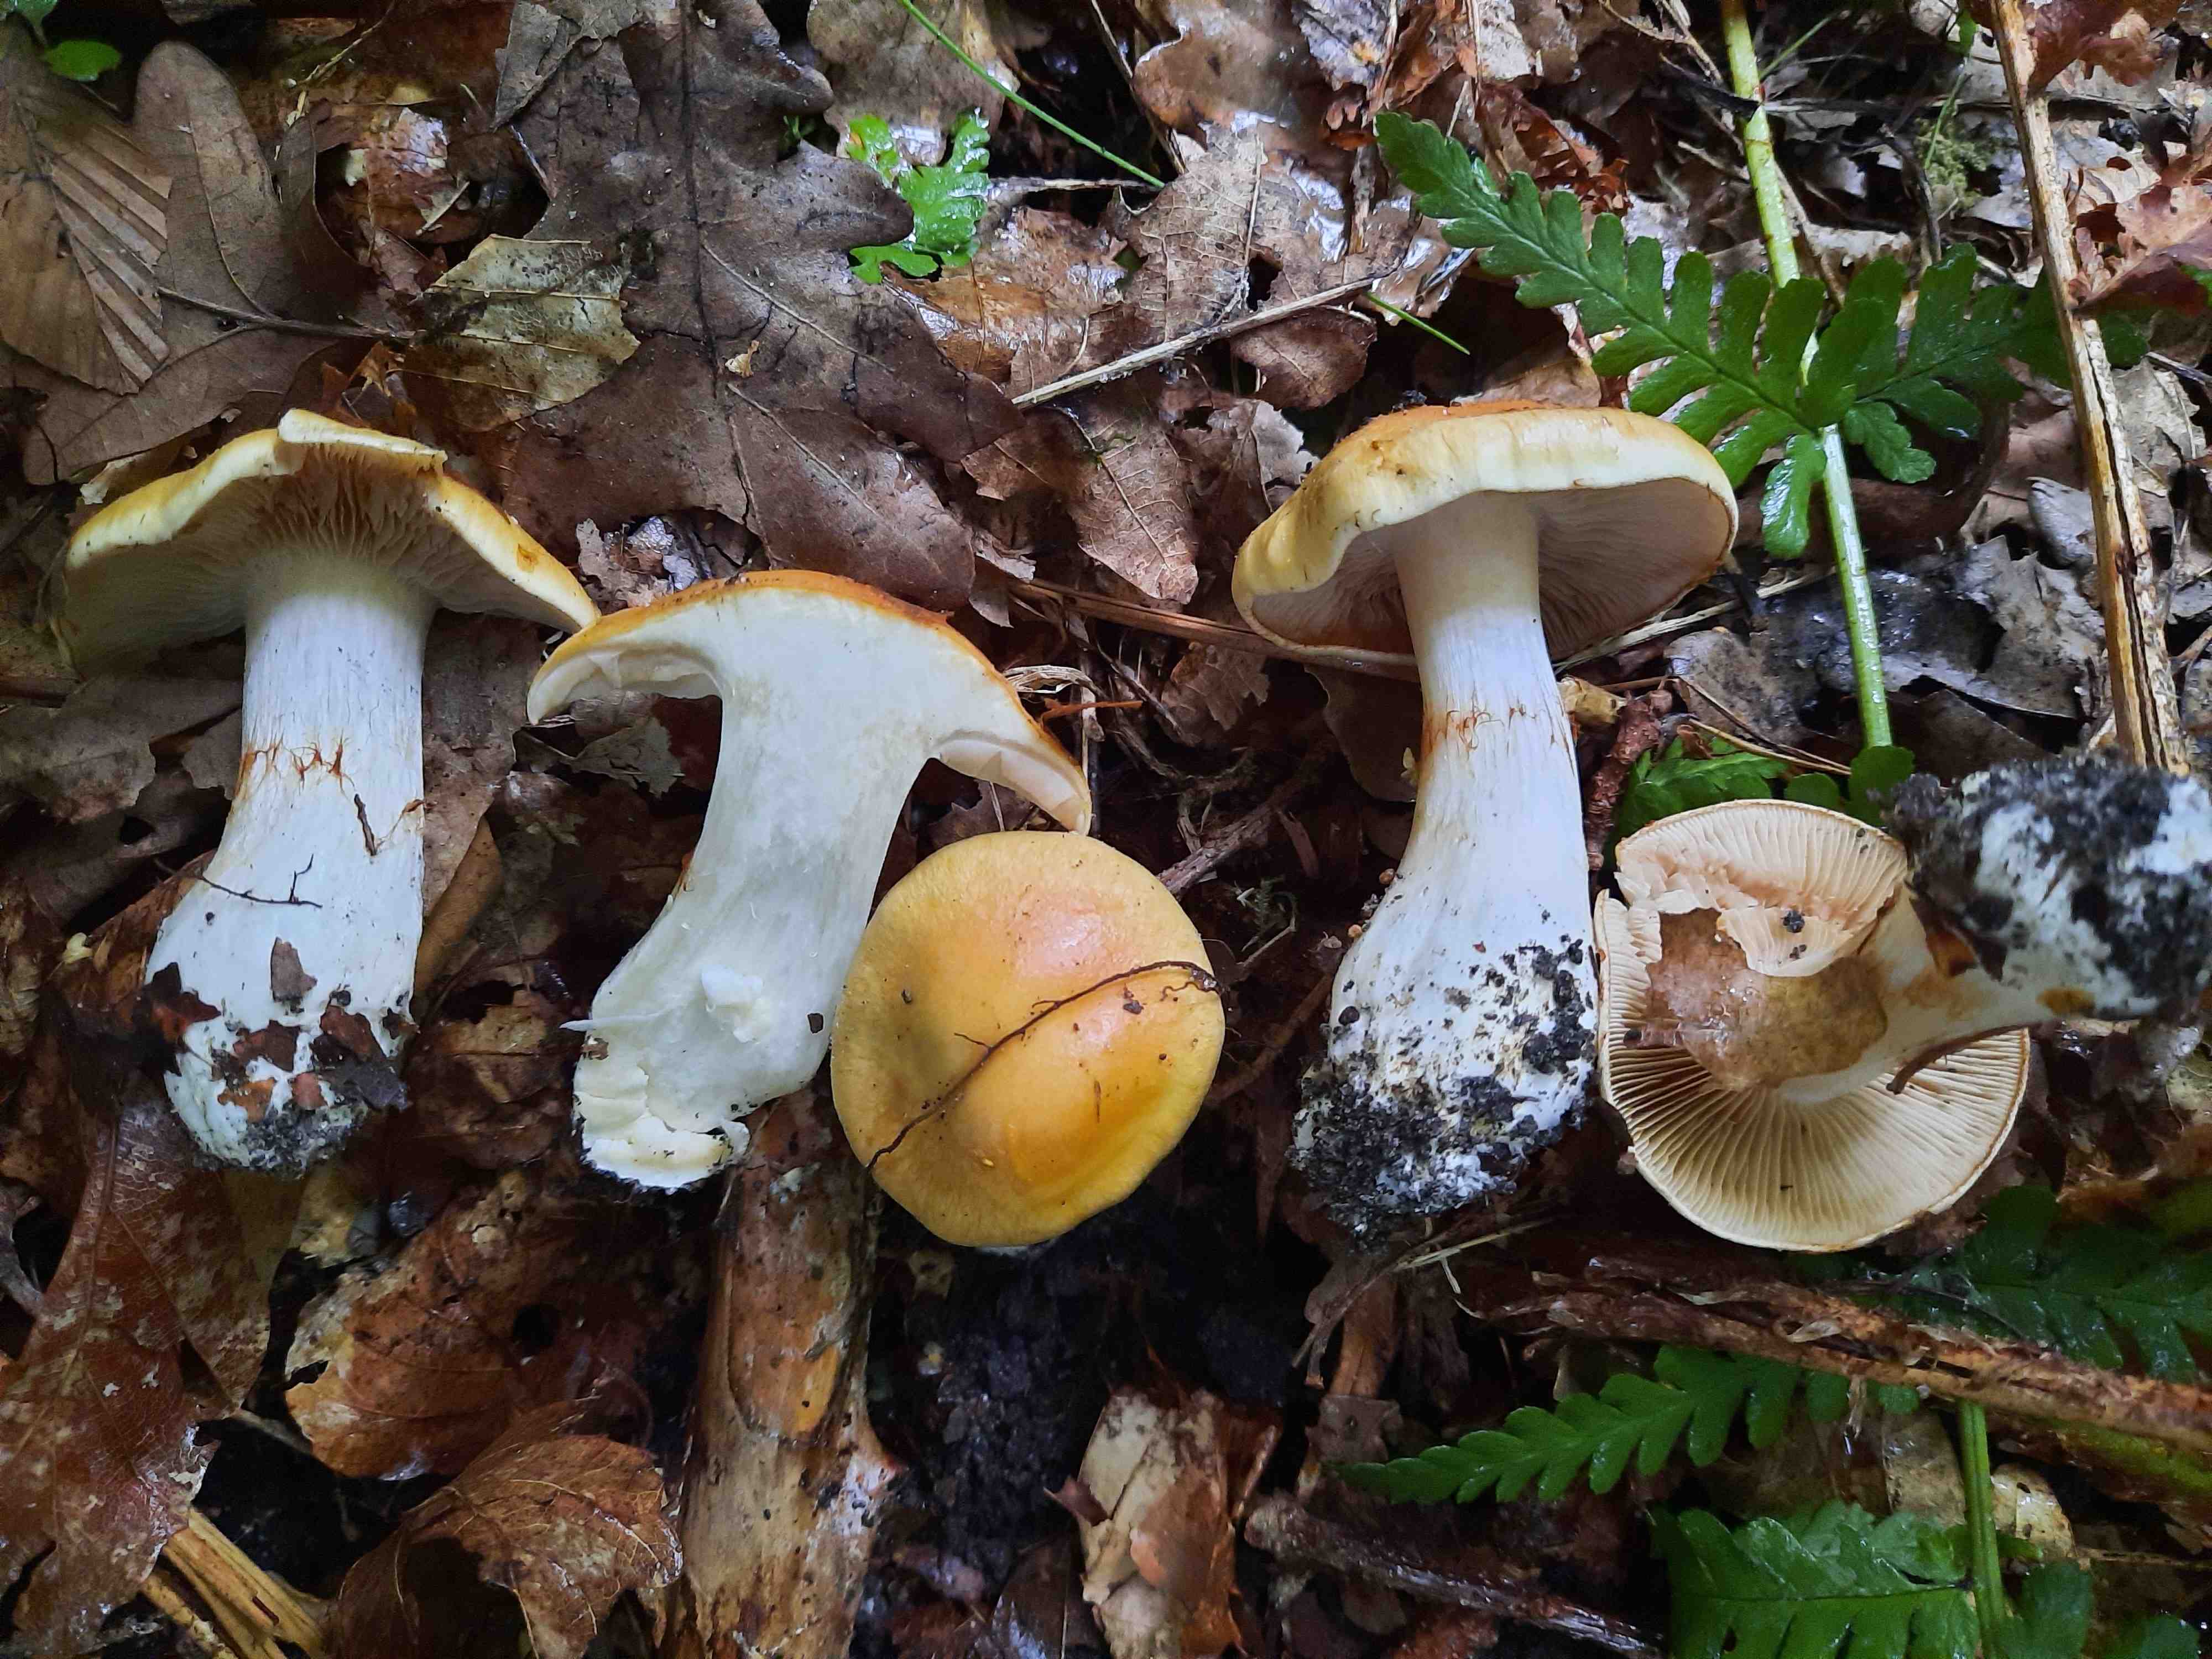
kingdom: Fungi
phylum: Basidiomycota
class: Agaricomycetes
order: Agaricales
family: Cortinariaceae
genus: Thaxterogaster
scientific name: Thaxterogaster emollitus
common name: besk slørhat
